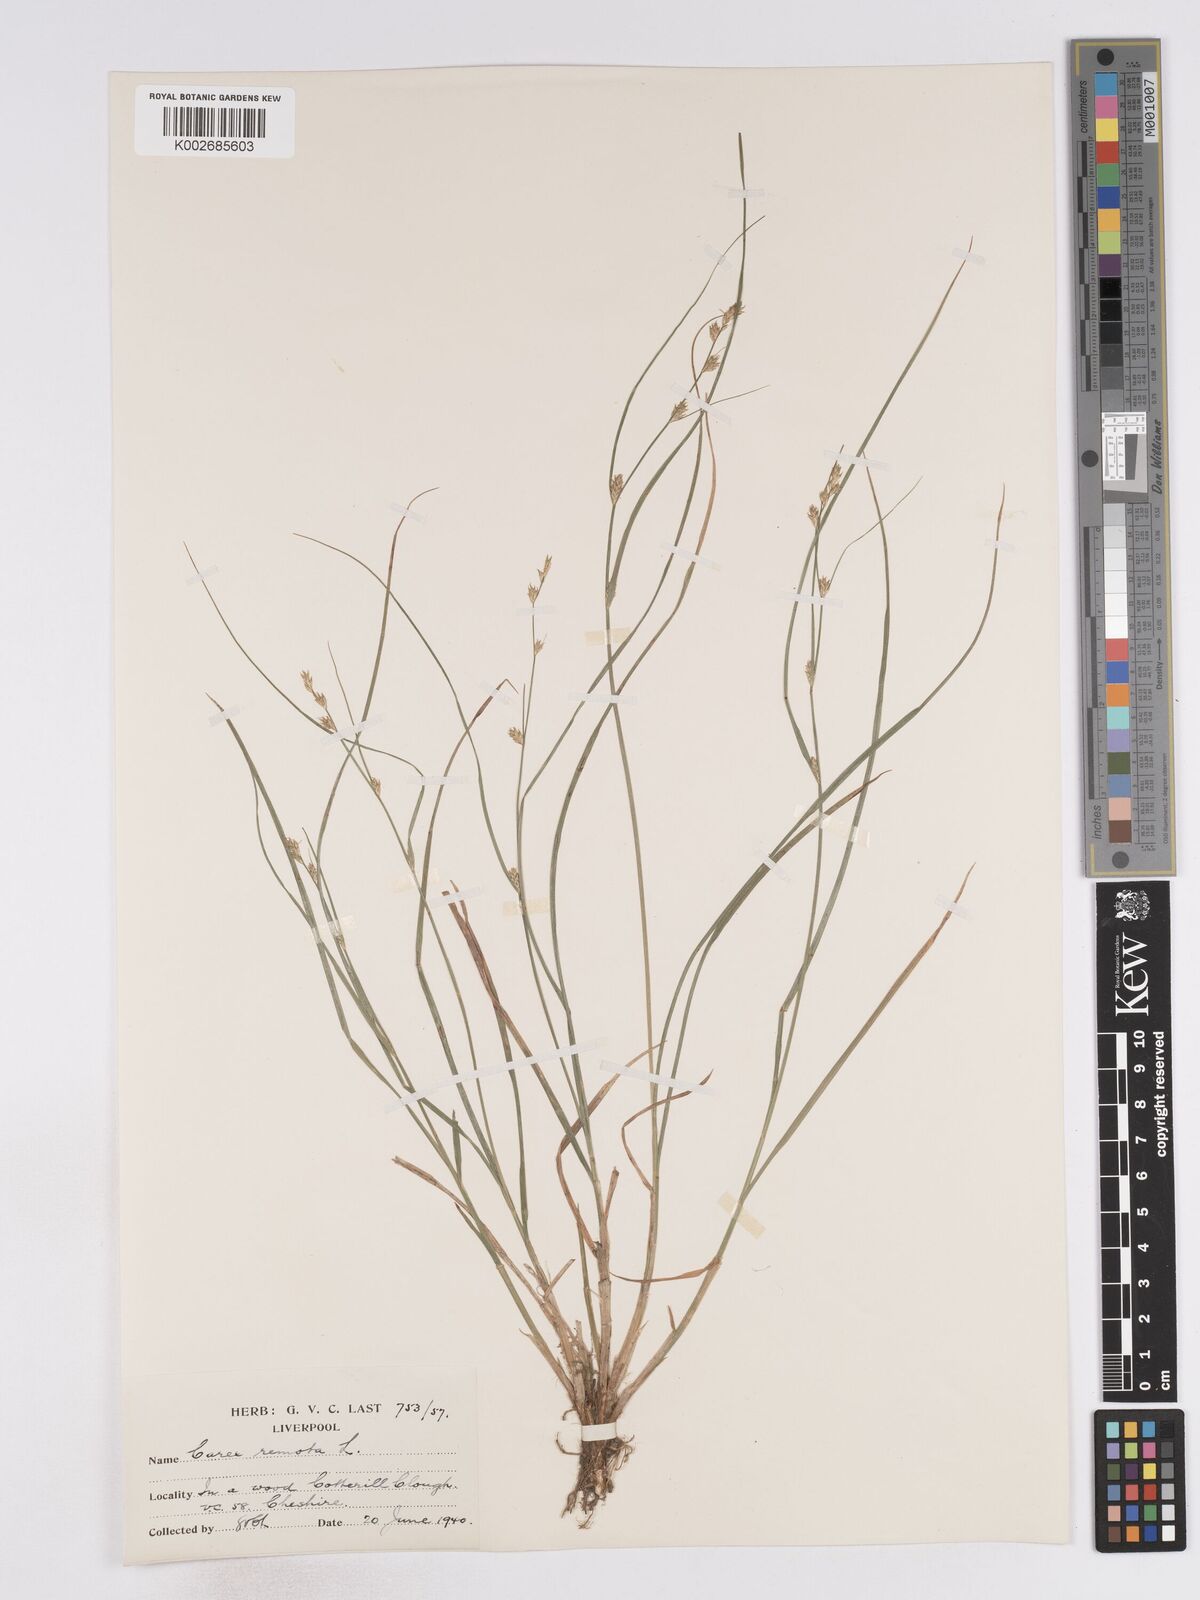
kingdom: Plantae
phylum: Tracheophyta
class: Liliopsida
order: Poales
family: Cyperaceae
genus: Carex
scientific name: Carex remota
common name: Remote sedge
